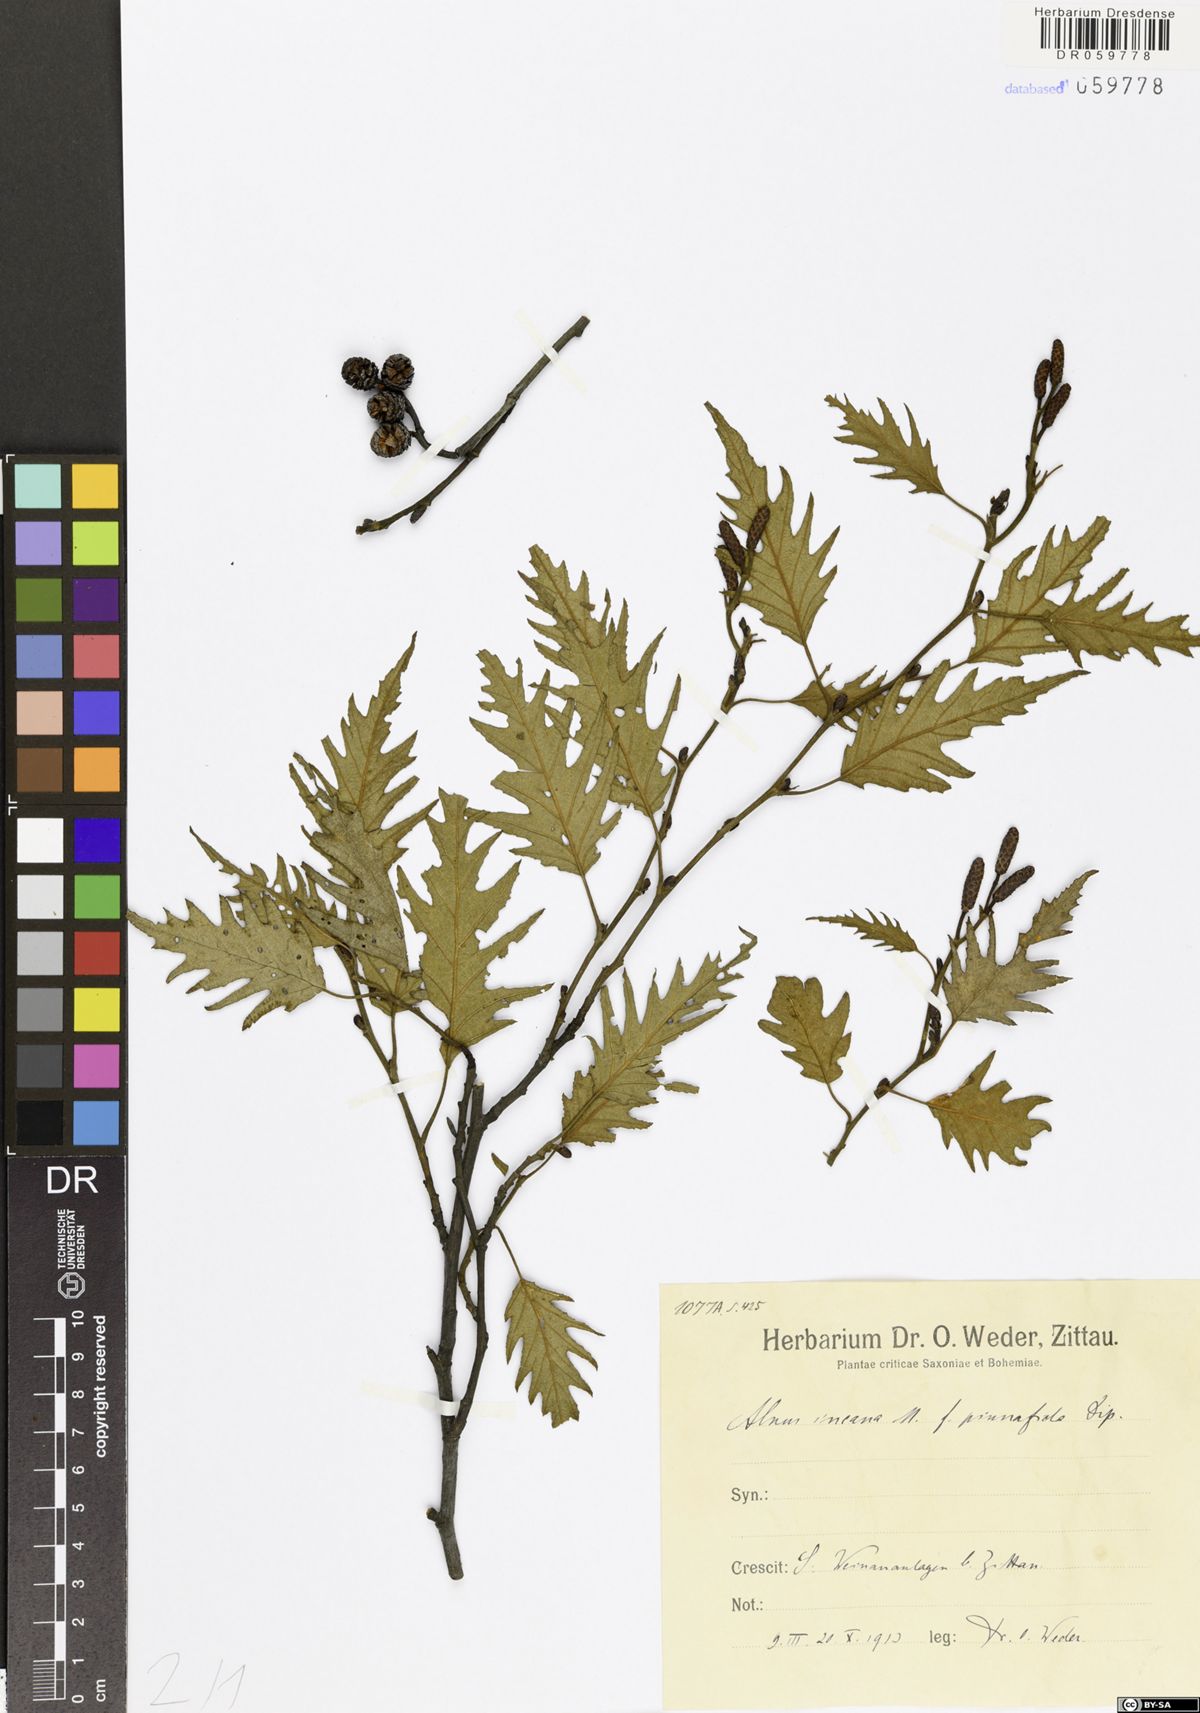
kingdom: Plantae
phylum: Tracheophyta
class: Magnoliopsida
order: Fagales
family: Betulaceae
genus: Alnus
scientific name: Alnus incana
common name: Grey alder
